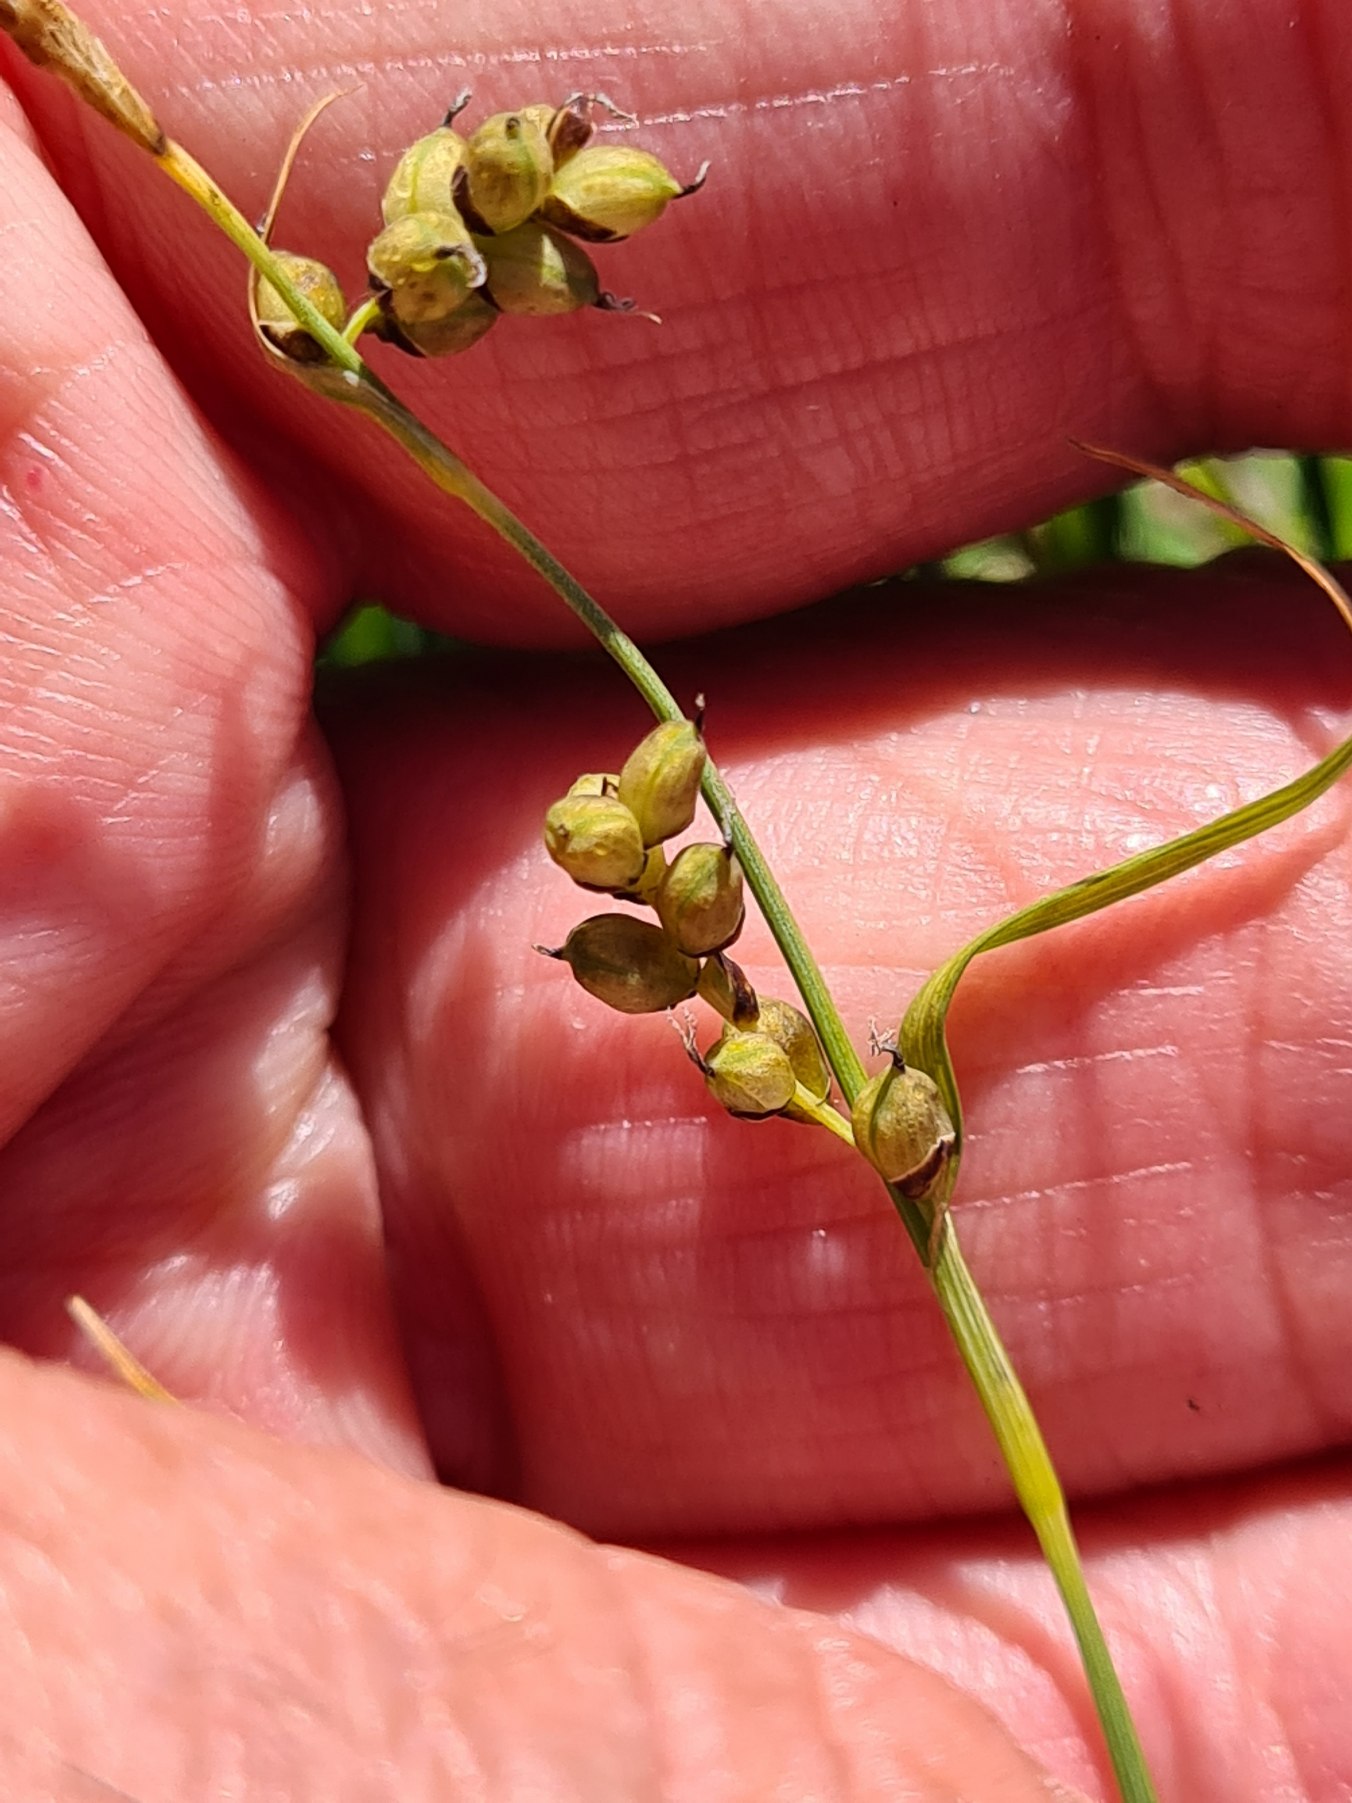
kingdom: Plantae
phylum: Tracheophyta
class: Liliopsida
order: Poales
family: Cyperaceae
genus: Carex
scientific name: Carex panicea
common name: Hirse-star
